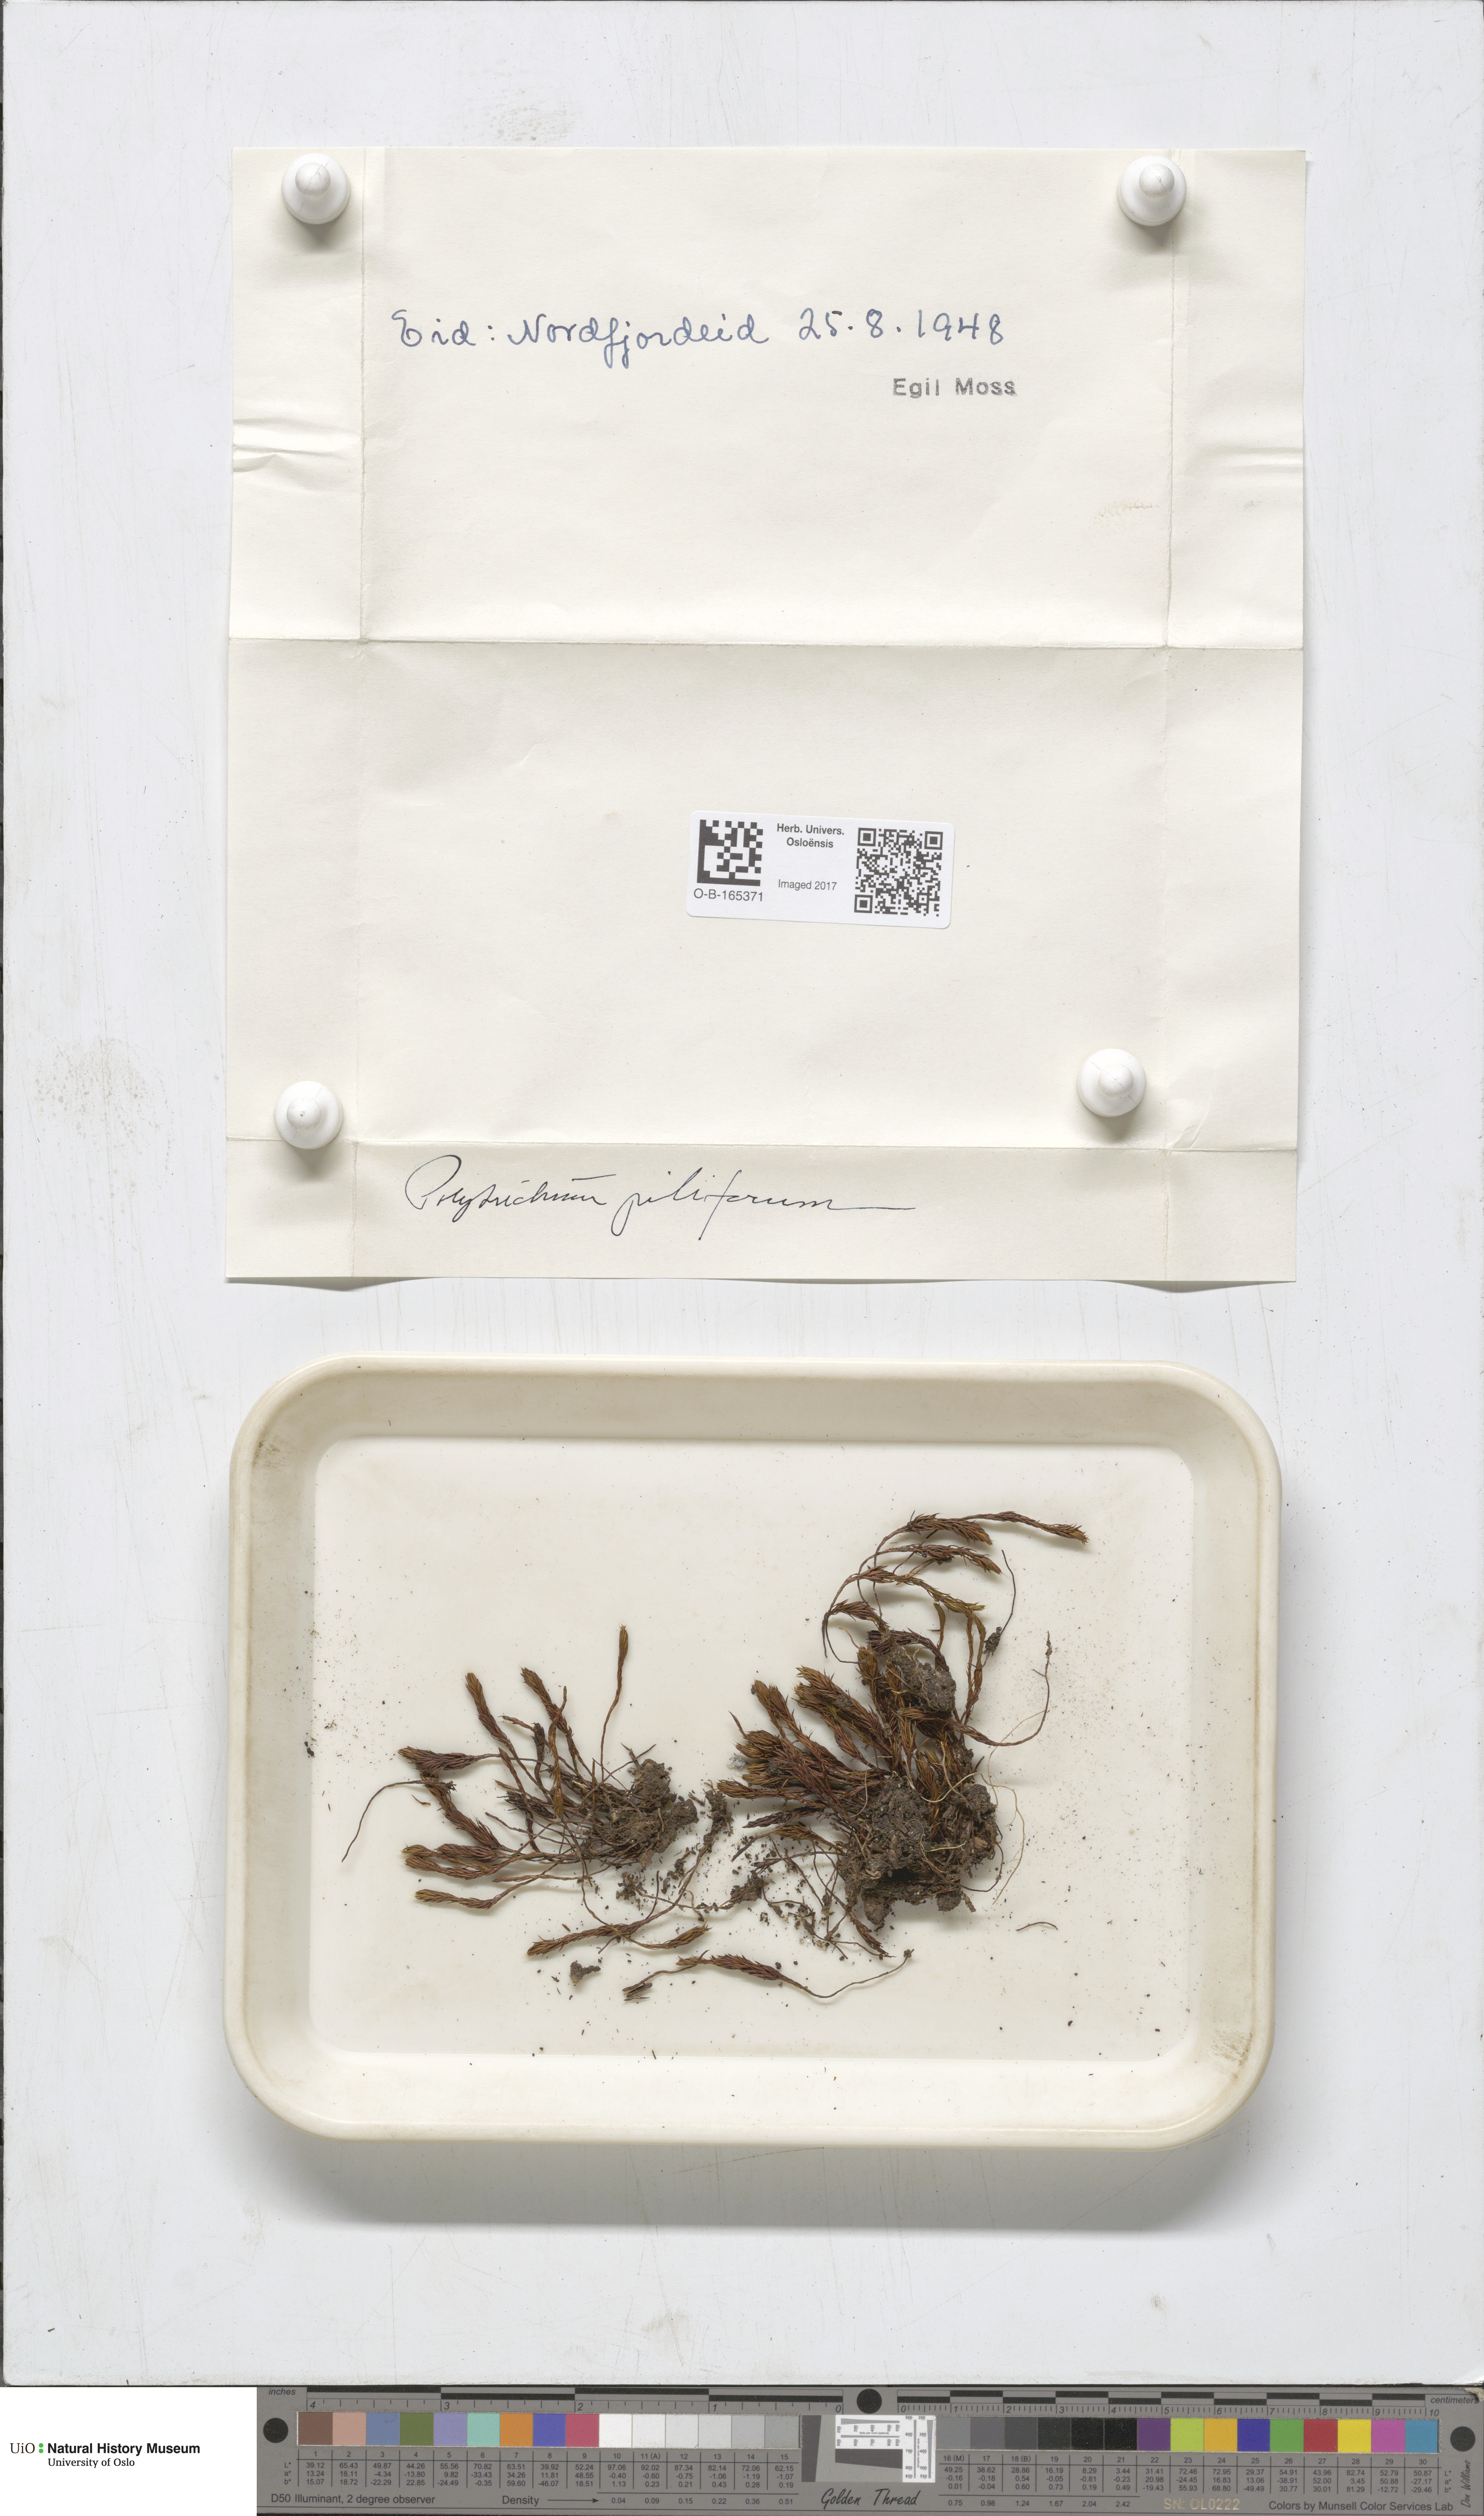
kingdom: Plantae
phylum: Bryophyta
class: Polytrichopsida
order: Polytrichales
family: Polytrichaceae
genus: Polytrichum
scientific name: Polytrichum piliferum
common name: Bristly haircap
